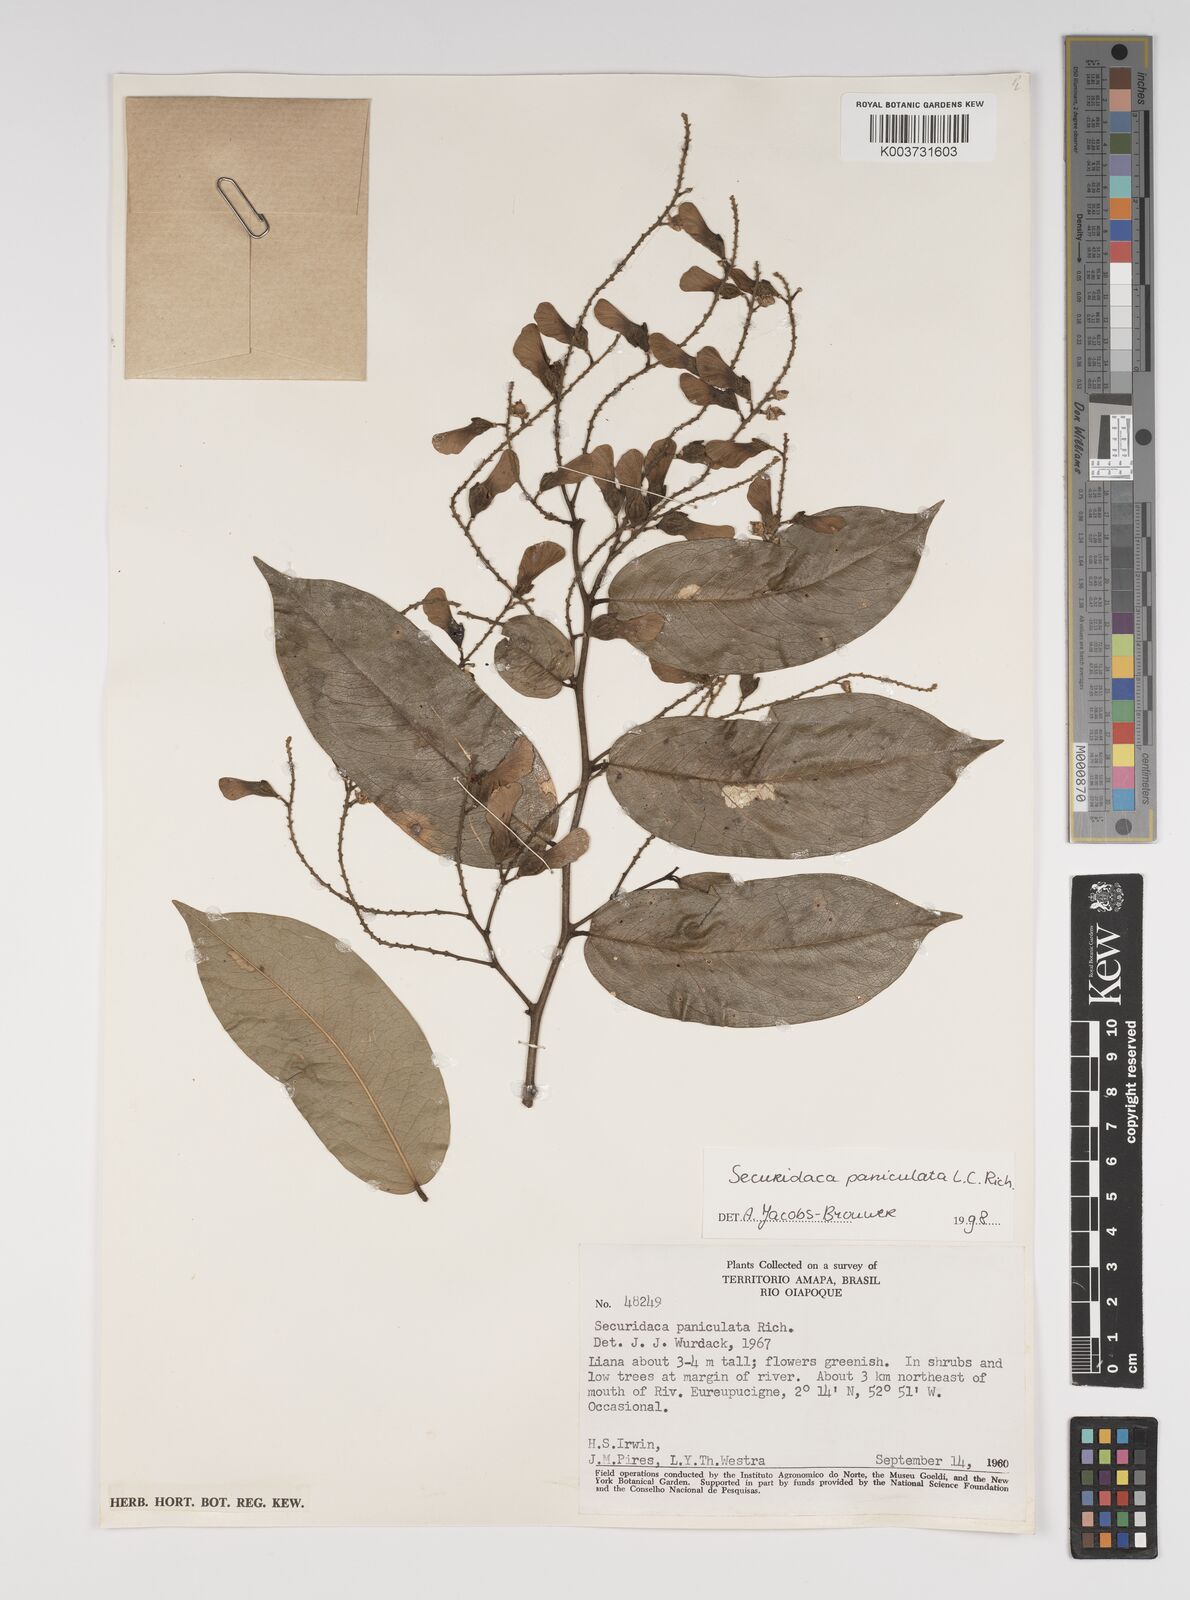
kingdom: Plantae
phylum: Tracheophyta
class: Magnoliopsida
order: Fabales
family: Polygalaceae
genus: Securidaca
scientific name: Securidaca paniculata
